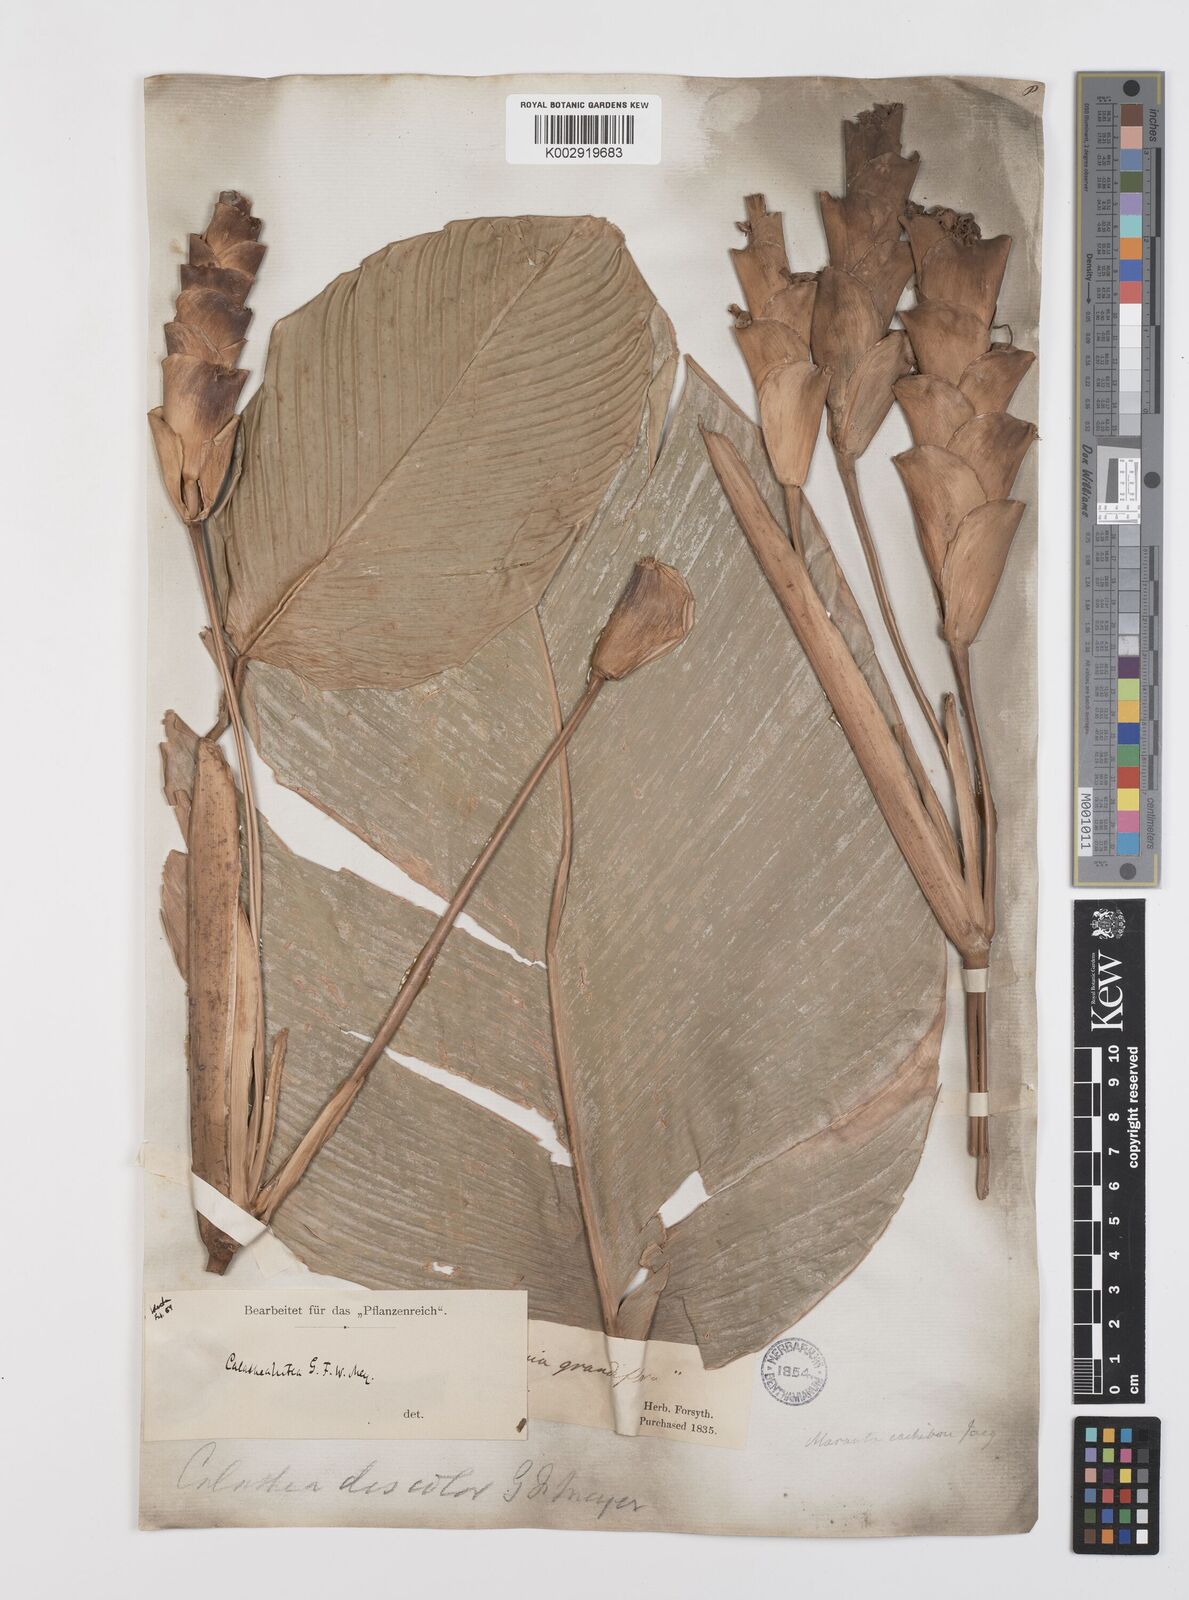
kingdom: Plantae
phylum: Tracheophyta
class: Liliopsida
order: Zingiberales
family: Marantaceae
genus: Calathea
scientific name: Calathea lutea
